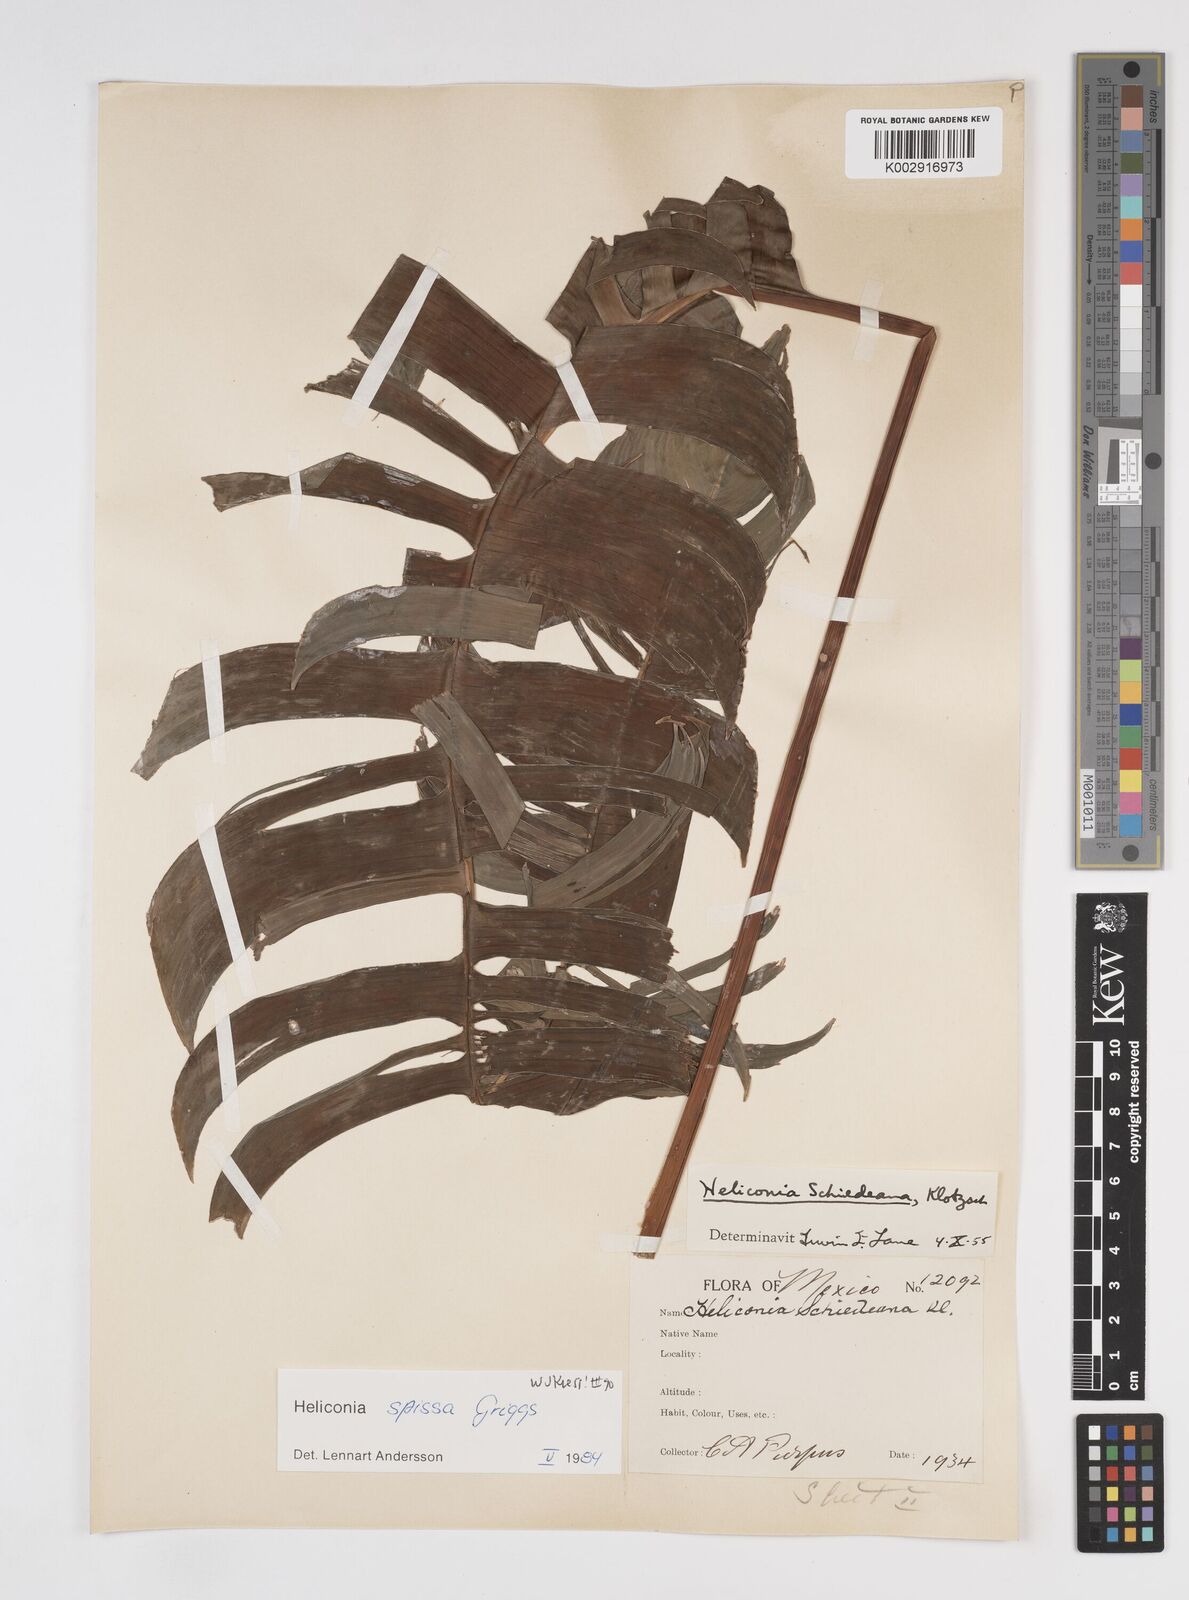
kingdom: Plantae
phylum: Tracheophyta
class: Liliopsida
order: Zingiberales
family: Heliconiaceae
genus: Heliconia
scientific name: Heliconia spissa
